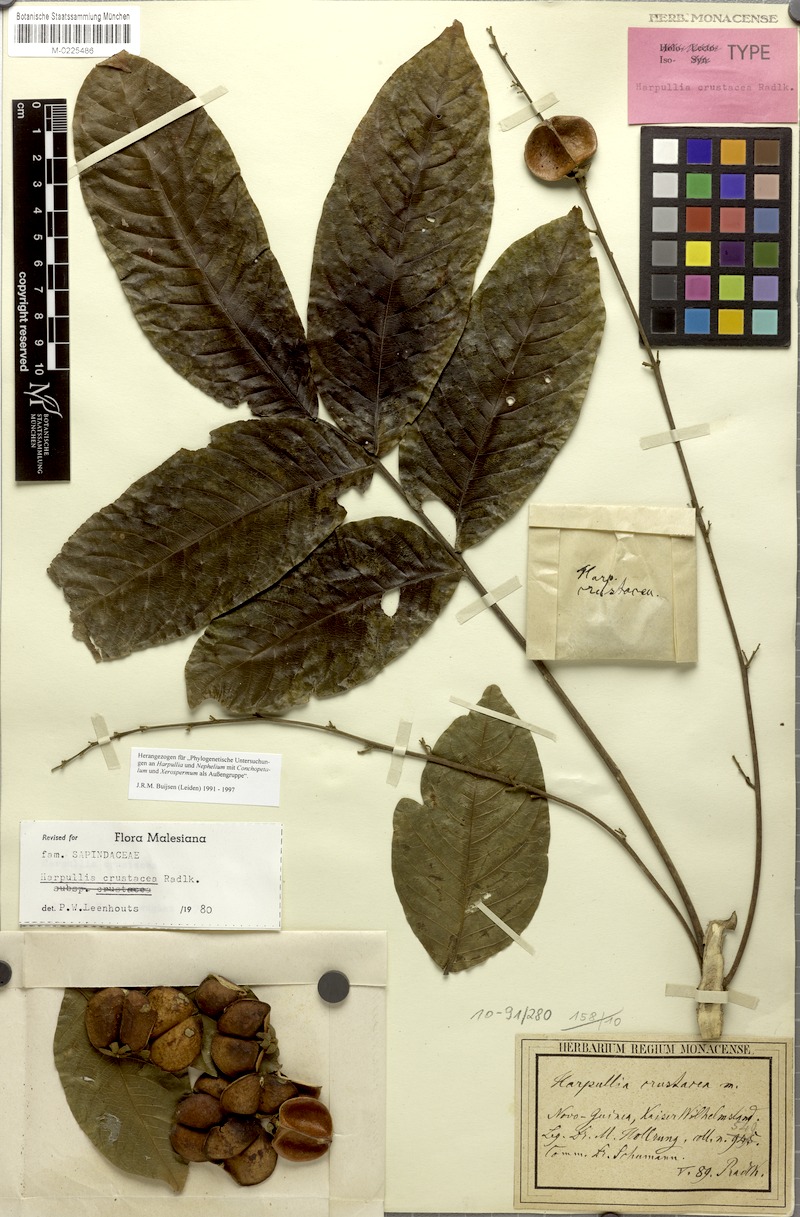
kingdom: Plantae
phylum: Tracheophyta
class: Magnoliopsida
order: Sapindales
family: Sapindaceae
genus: Harpullia
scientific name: Harpullia crustacea
